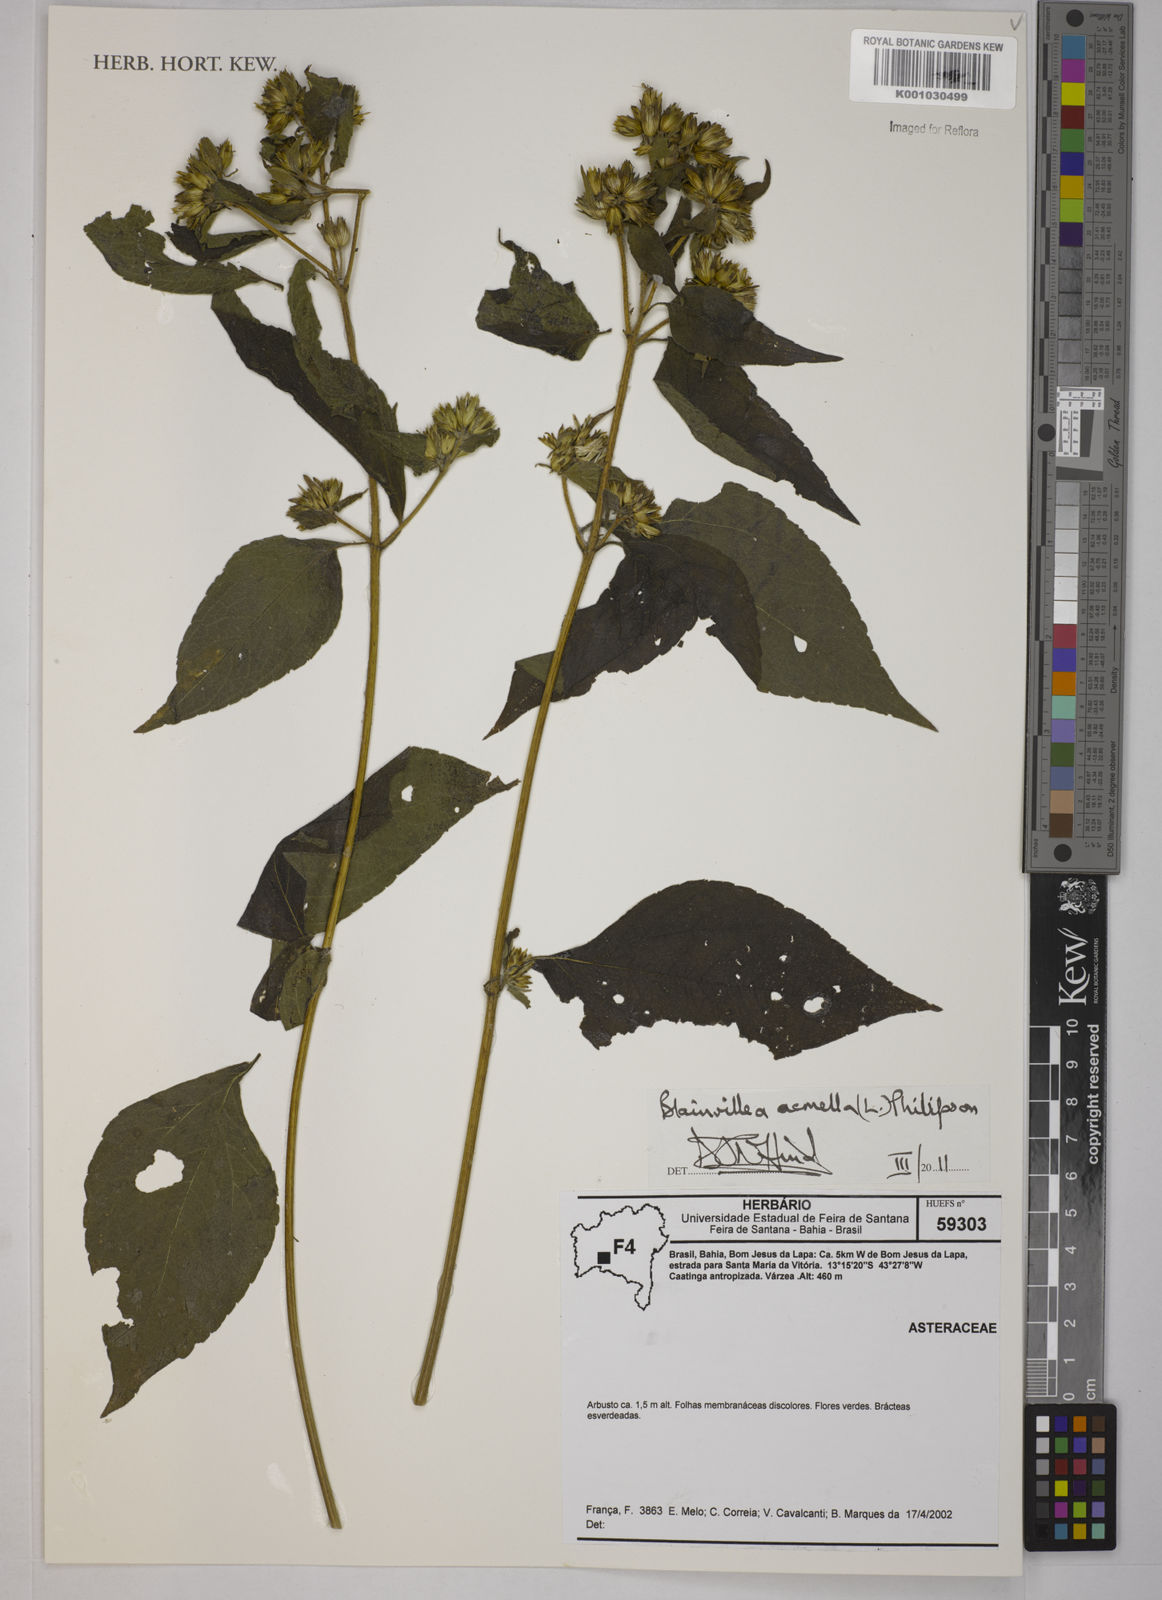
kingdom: Plantae
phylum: Tracheophyta
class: Magnoliopsida
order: Asterales
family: Asteraceae
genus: Blainvillea
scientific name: Blainvillea dichotoma
